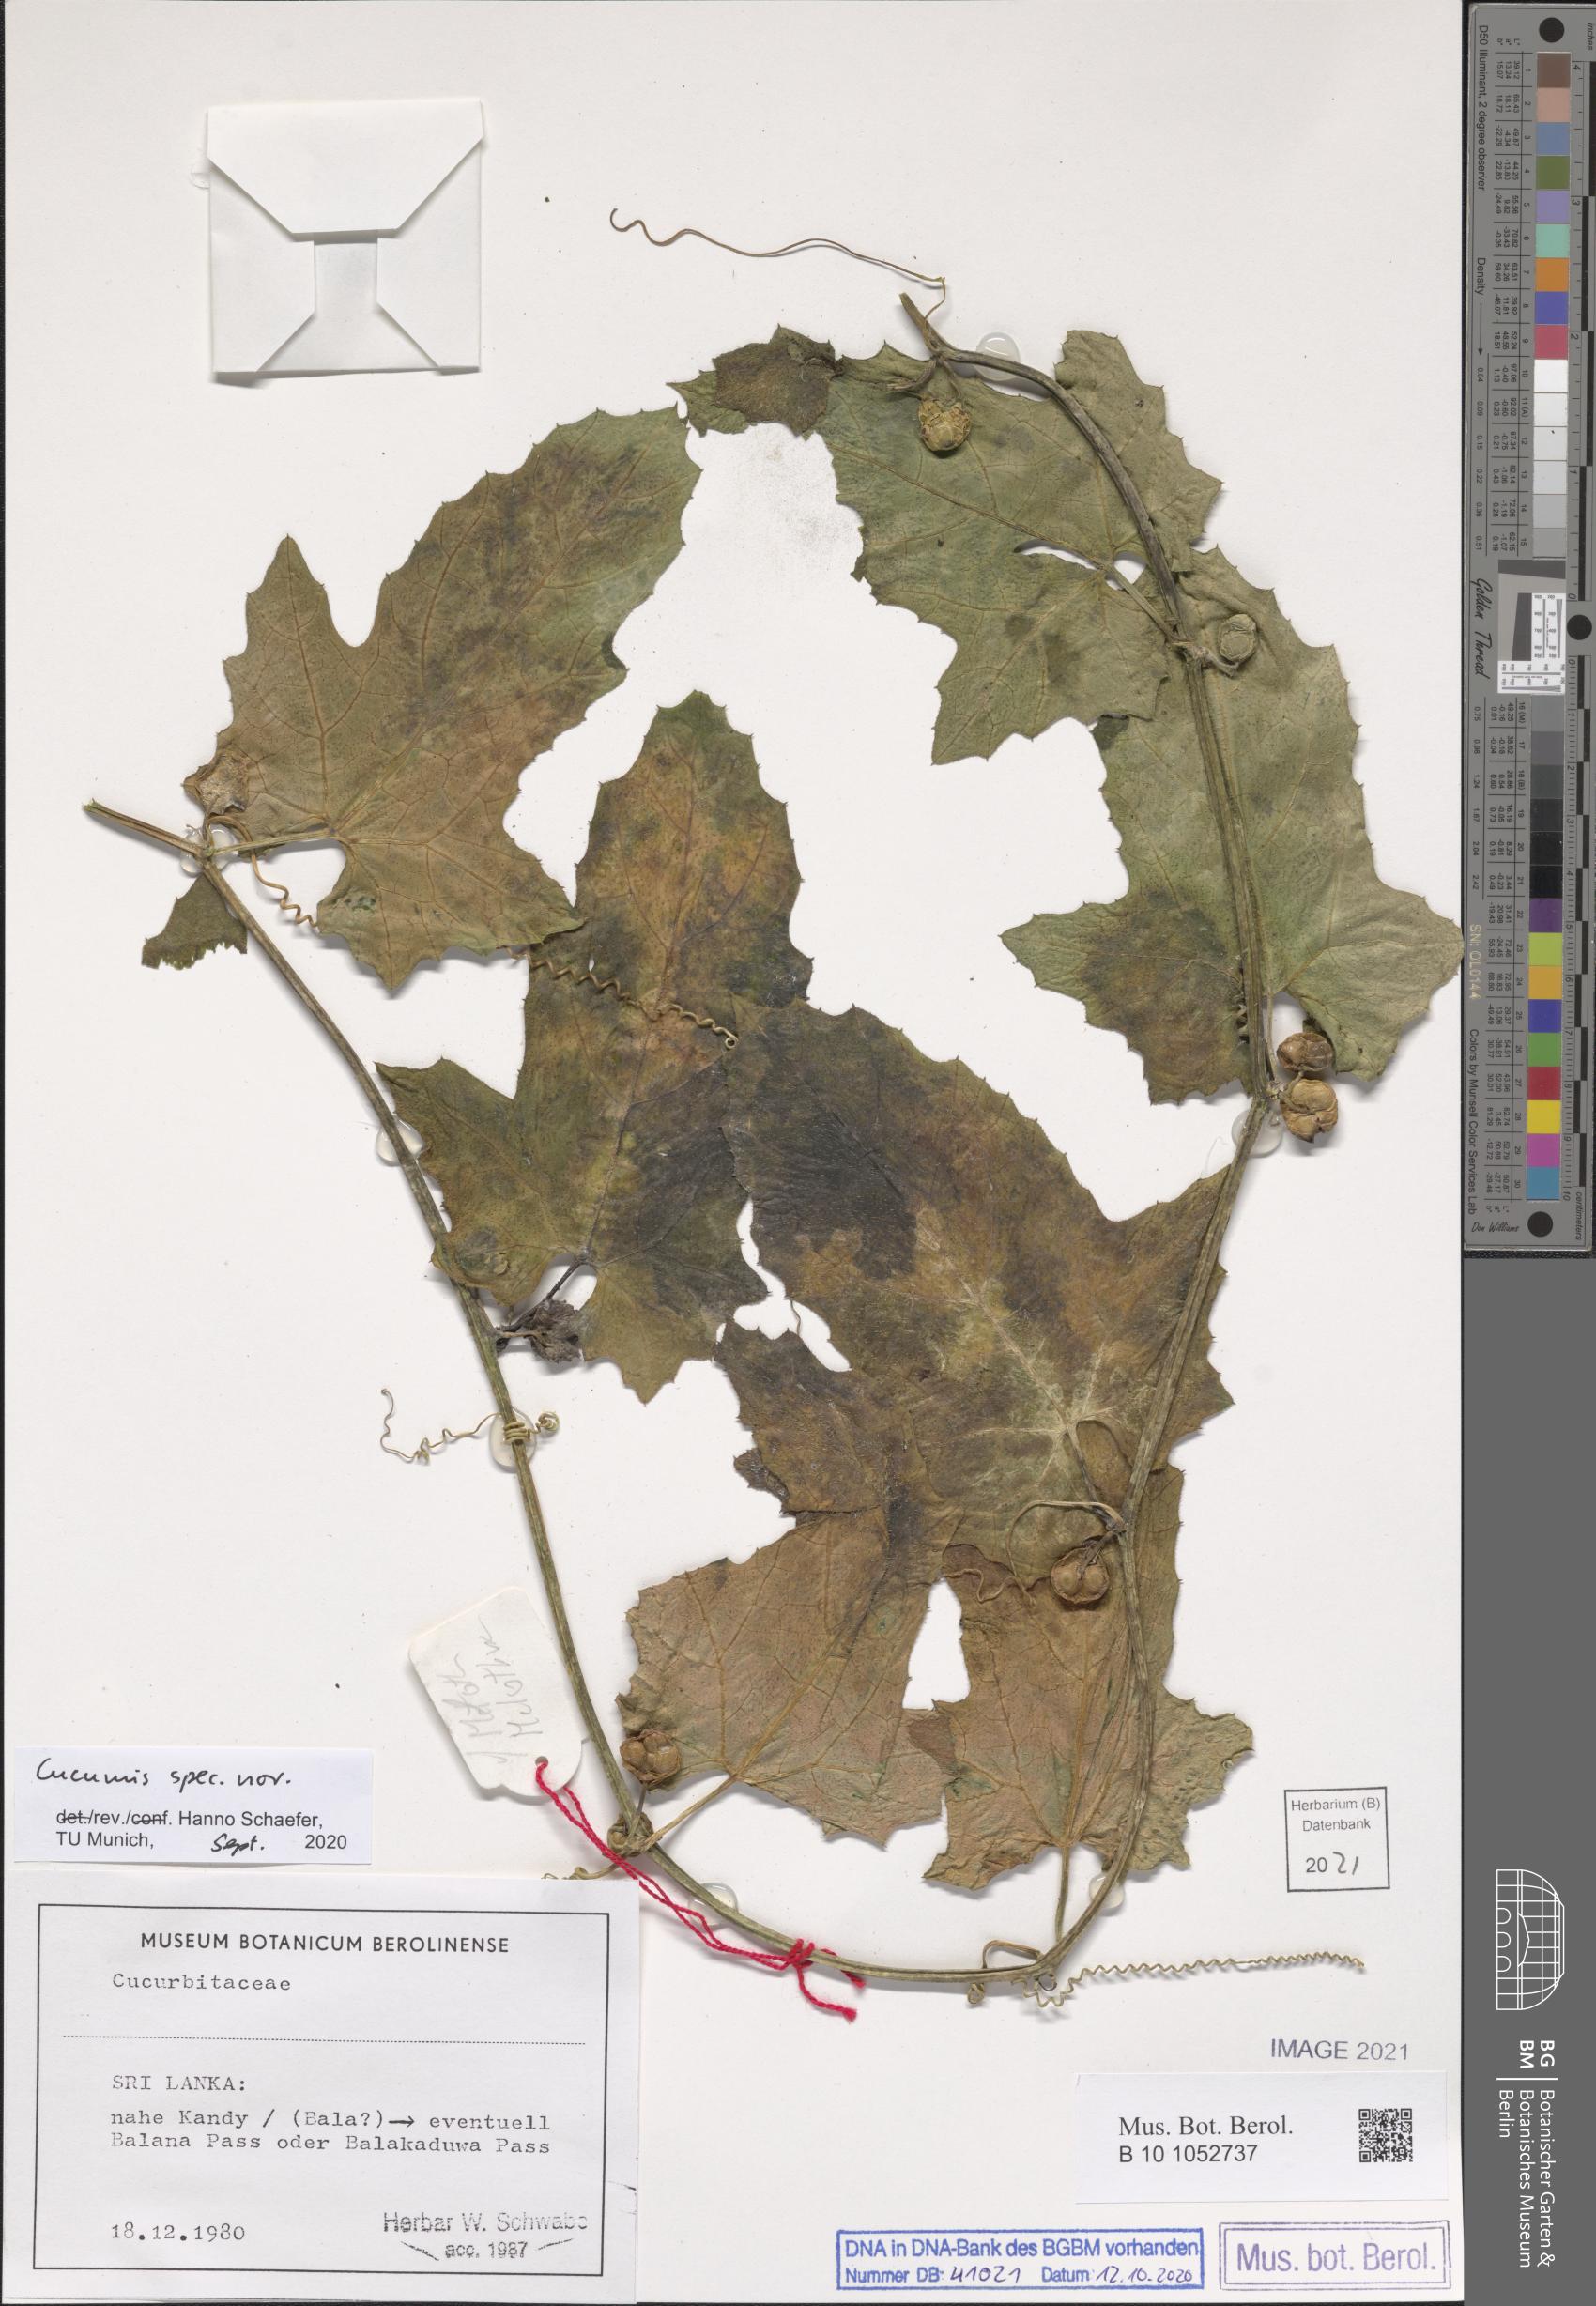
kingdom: Plantae
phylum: Tracheophyta
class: Magnoliopsida
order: Cucurbitales
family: Cucurbitaceae
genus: Cucumis
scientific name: Cucumis
